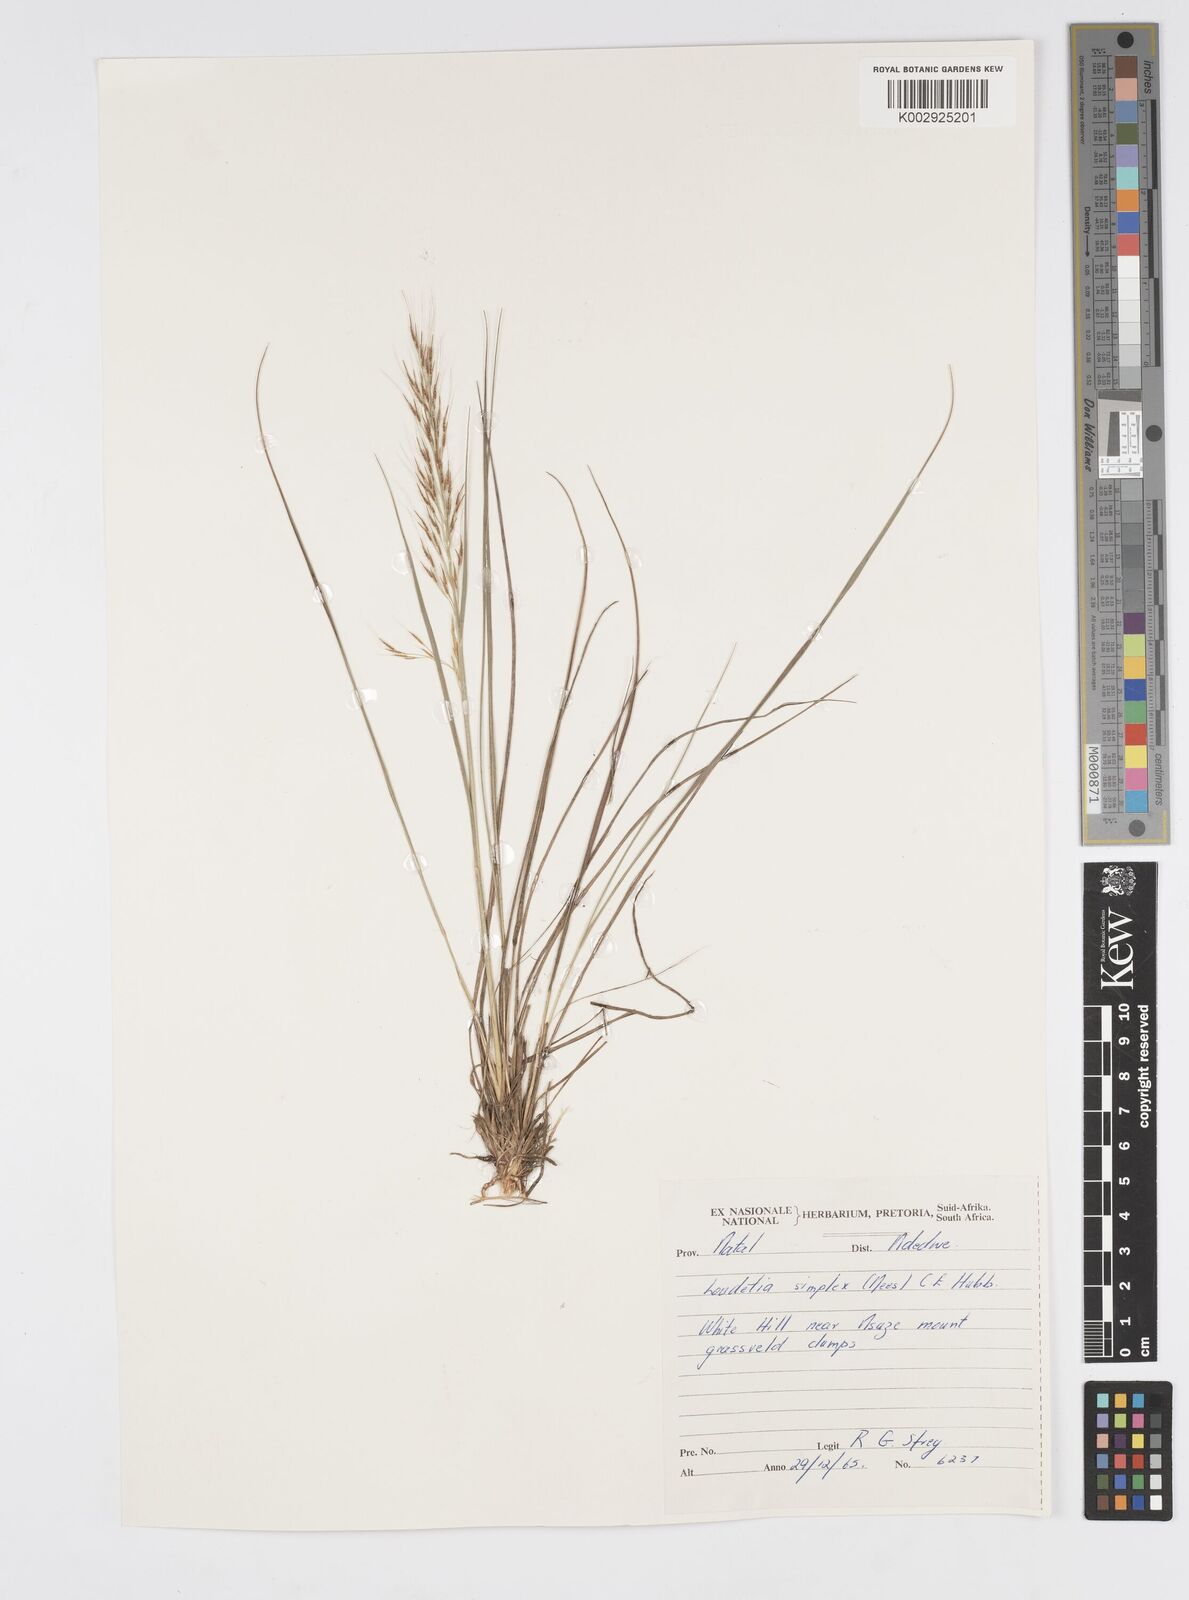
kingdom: Plantae
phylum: Tracheophyta
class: Liliopsida
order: Poales
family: Poaceae
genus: Loudetia
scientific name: Loudetia simplex
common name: Common russet grass
